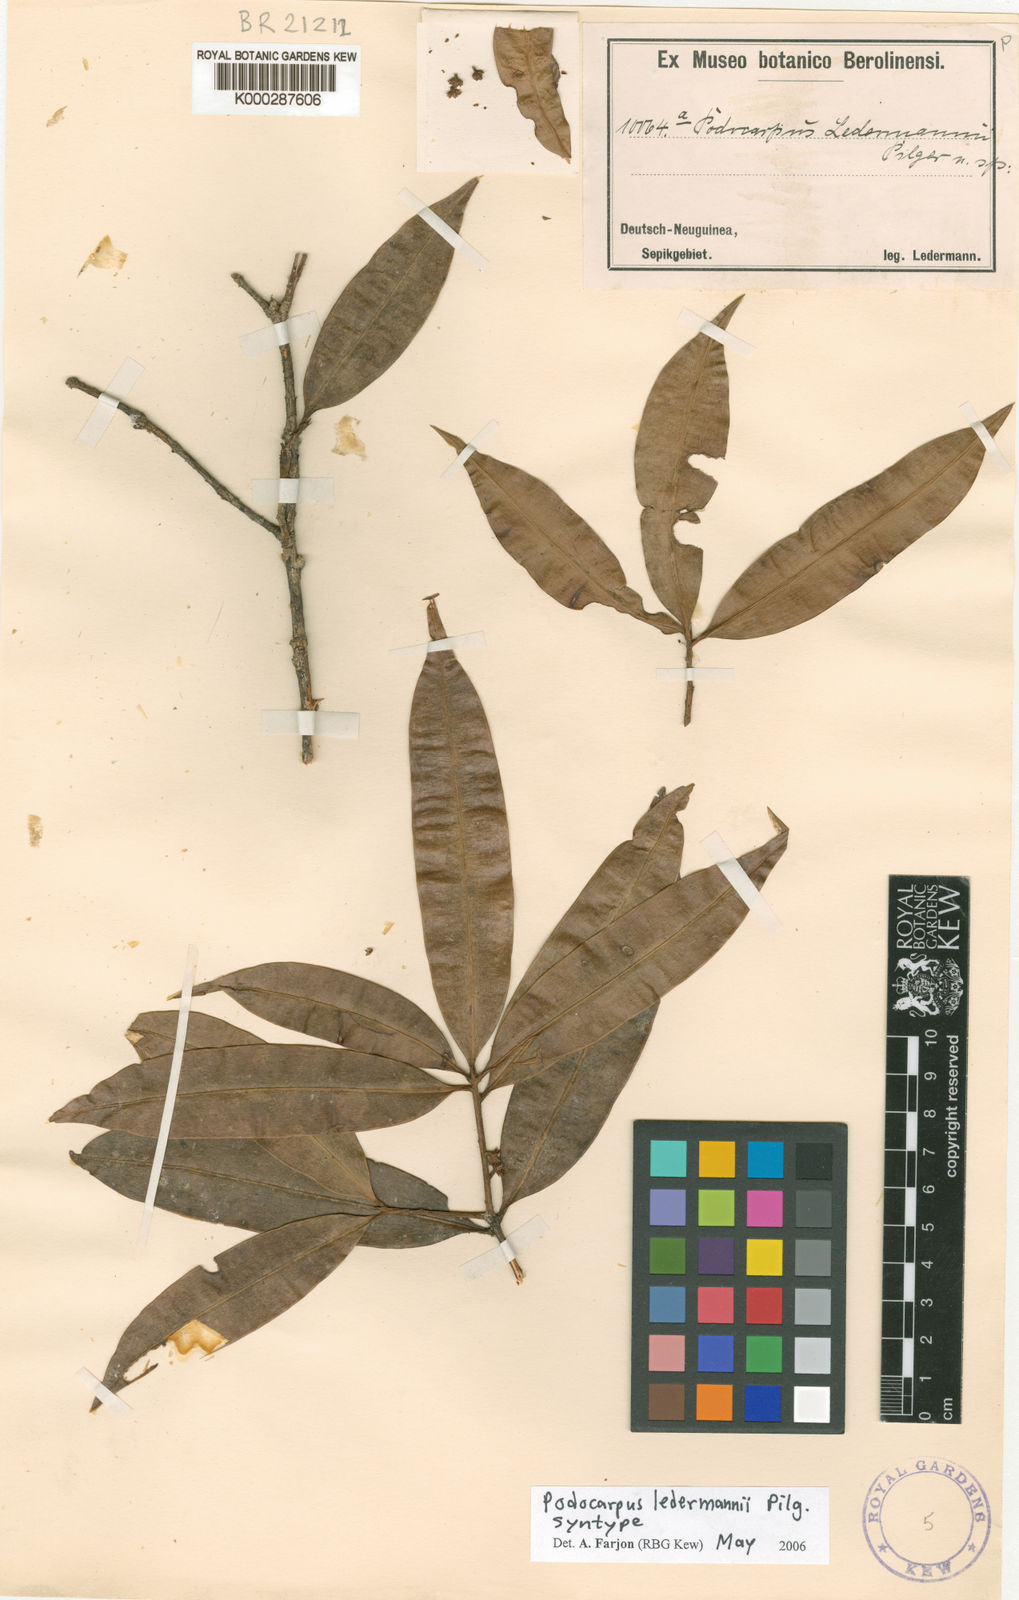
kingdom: Plantae
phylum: Tracheophyta
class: Pinopsida
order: Pinales
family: Podocarpaceae
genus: Podocarpus
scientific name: Podocarpus ledermannii
